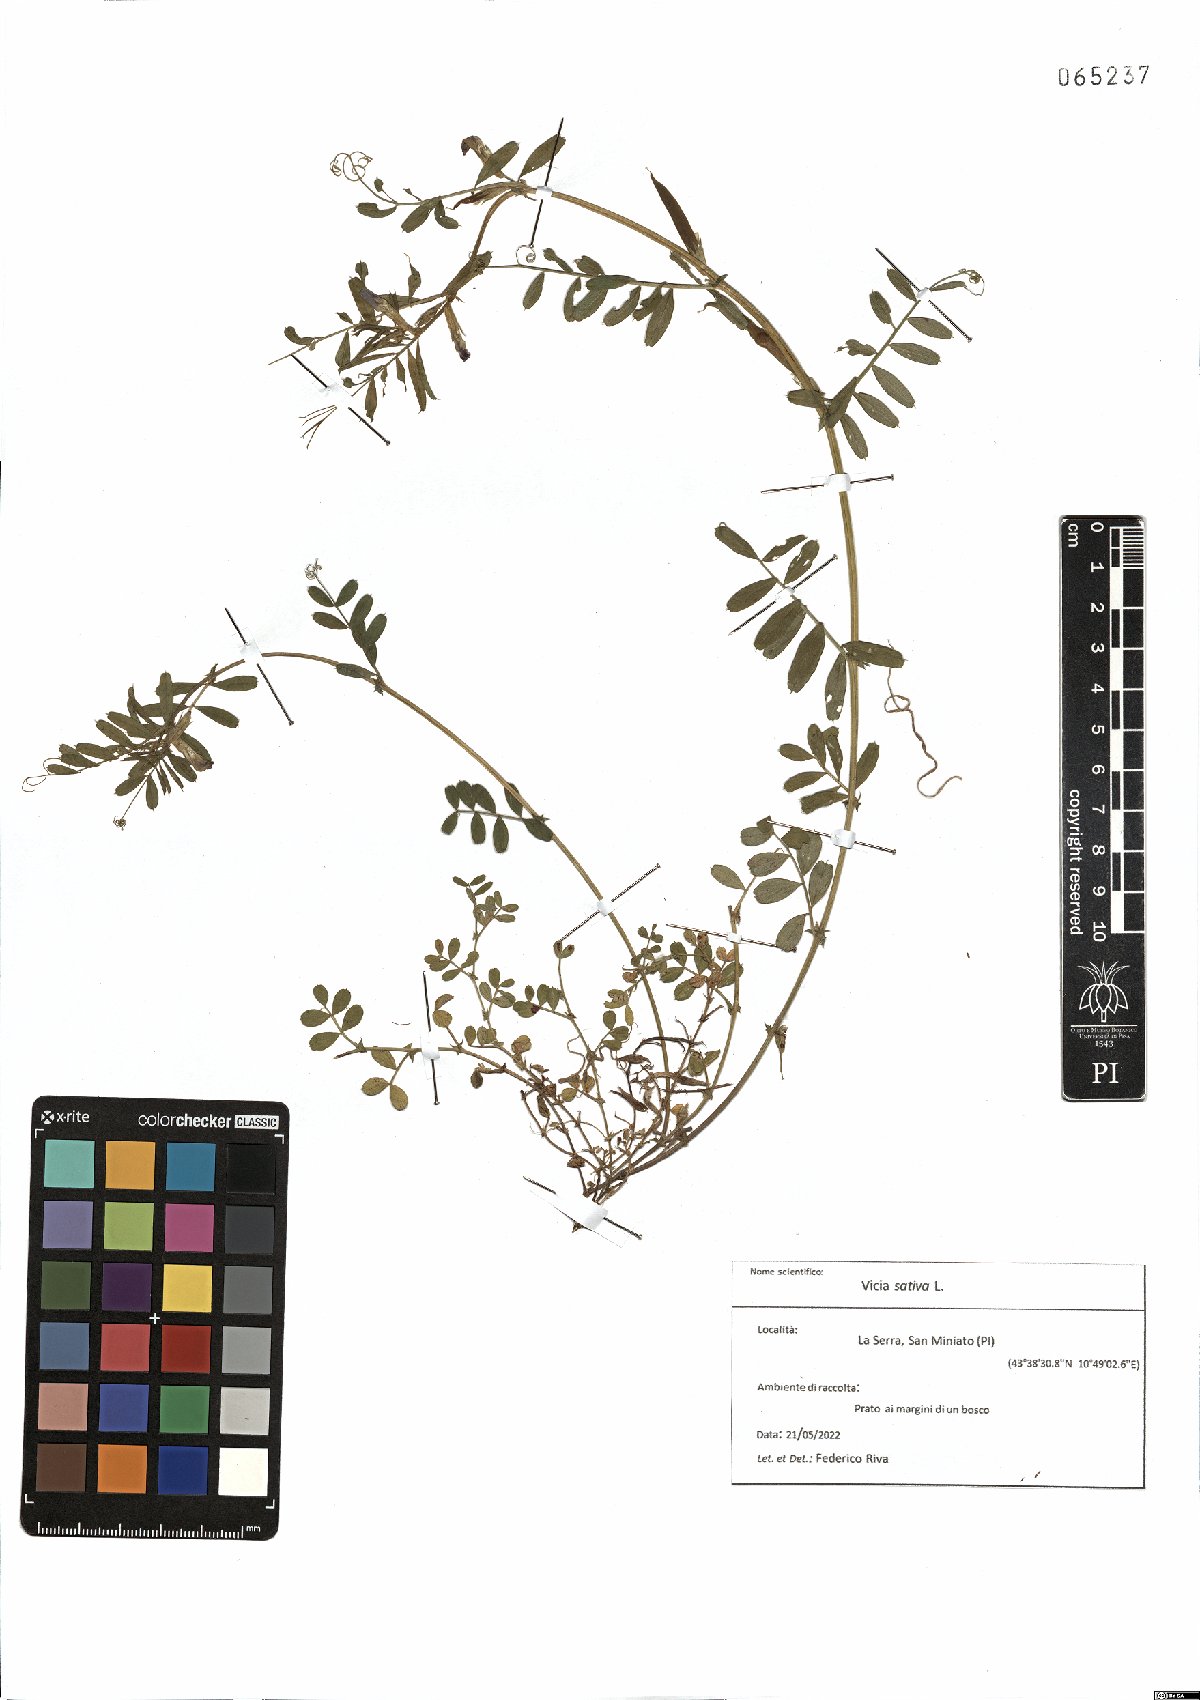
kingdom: Plantae
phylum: Tracheophyta
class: Magnoliopsida
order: Fabales
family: Fabaceae
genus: Vicia
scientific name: Vicia sativa
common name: Garden vetch
